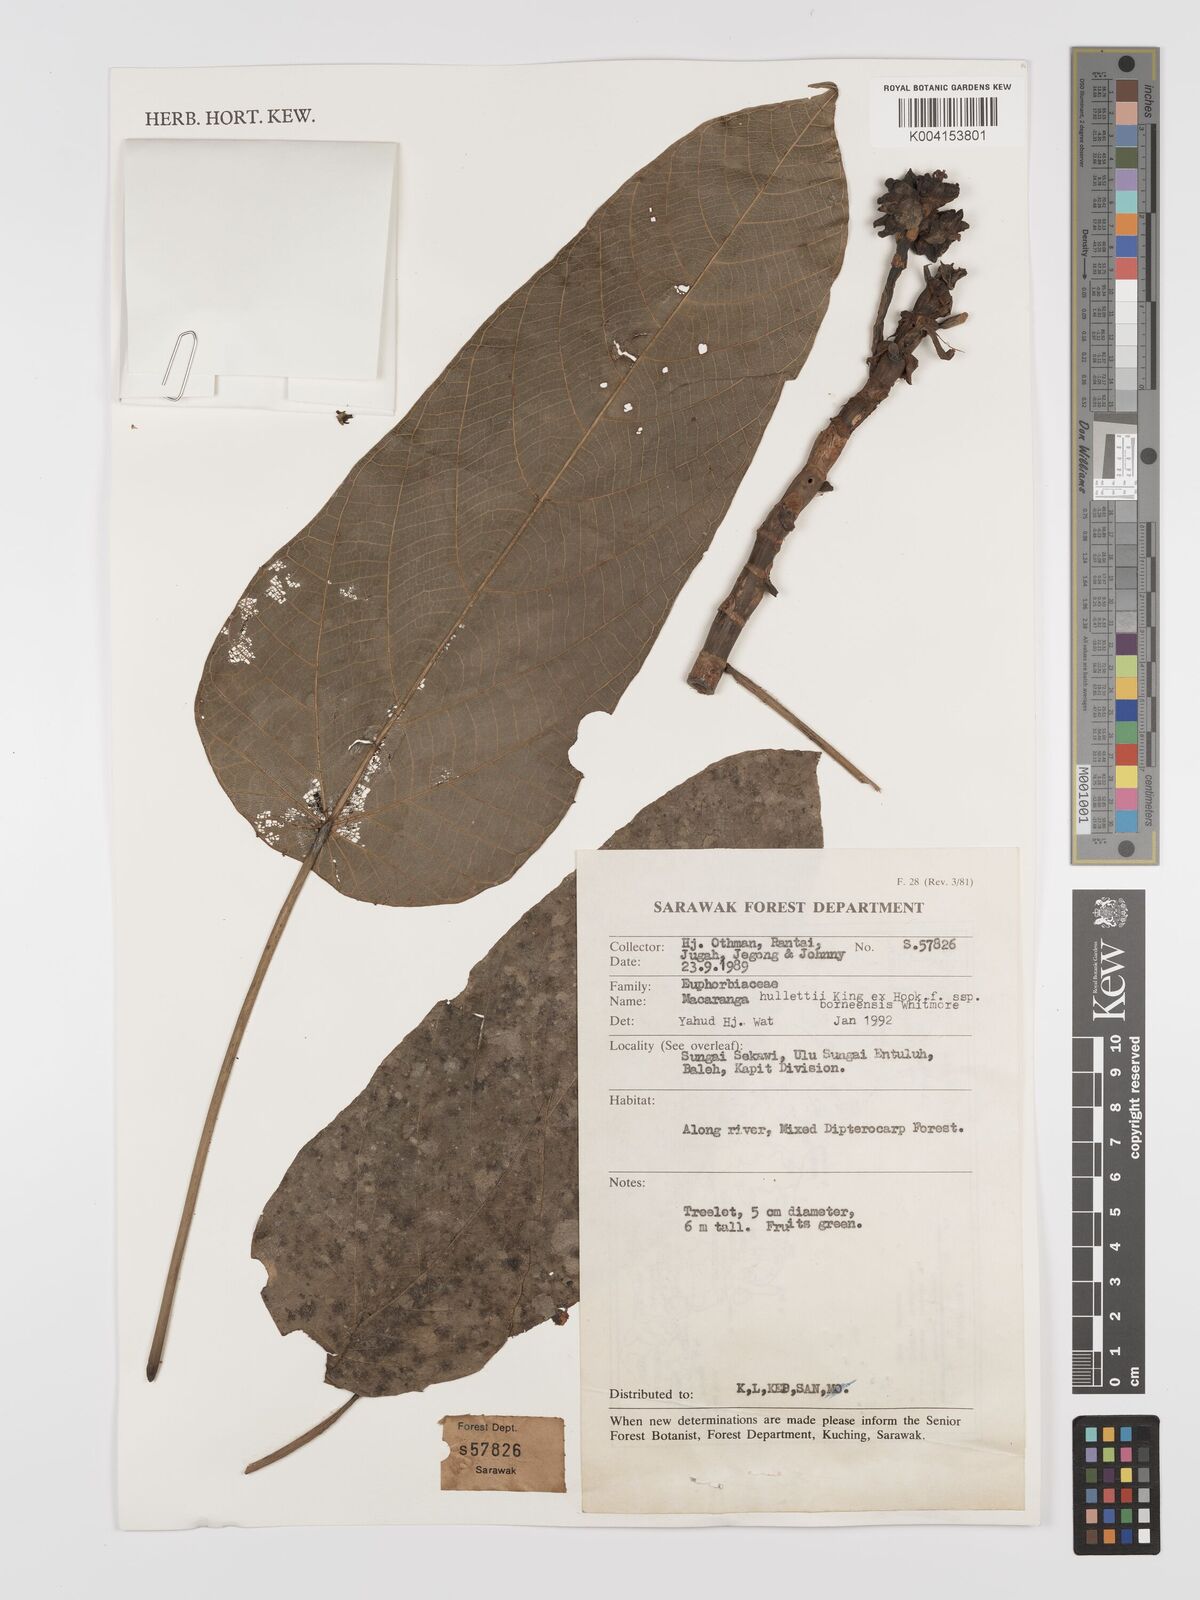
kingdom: Plantae
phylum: Tracheophyta
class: Magnoliopsida
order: Malpighiales
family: Euphorbiaceae
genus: Macaranga
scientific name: Macaranga hullettii
